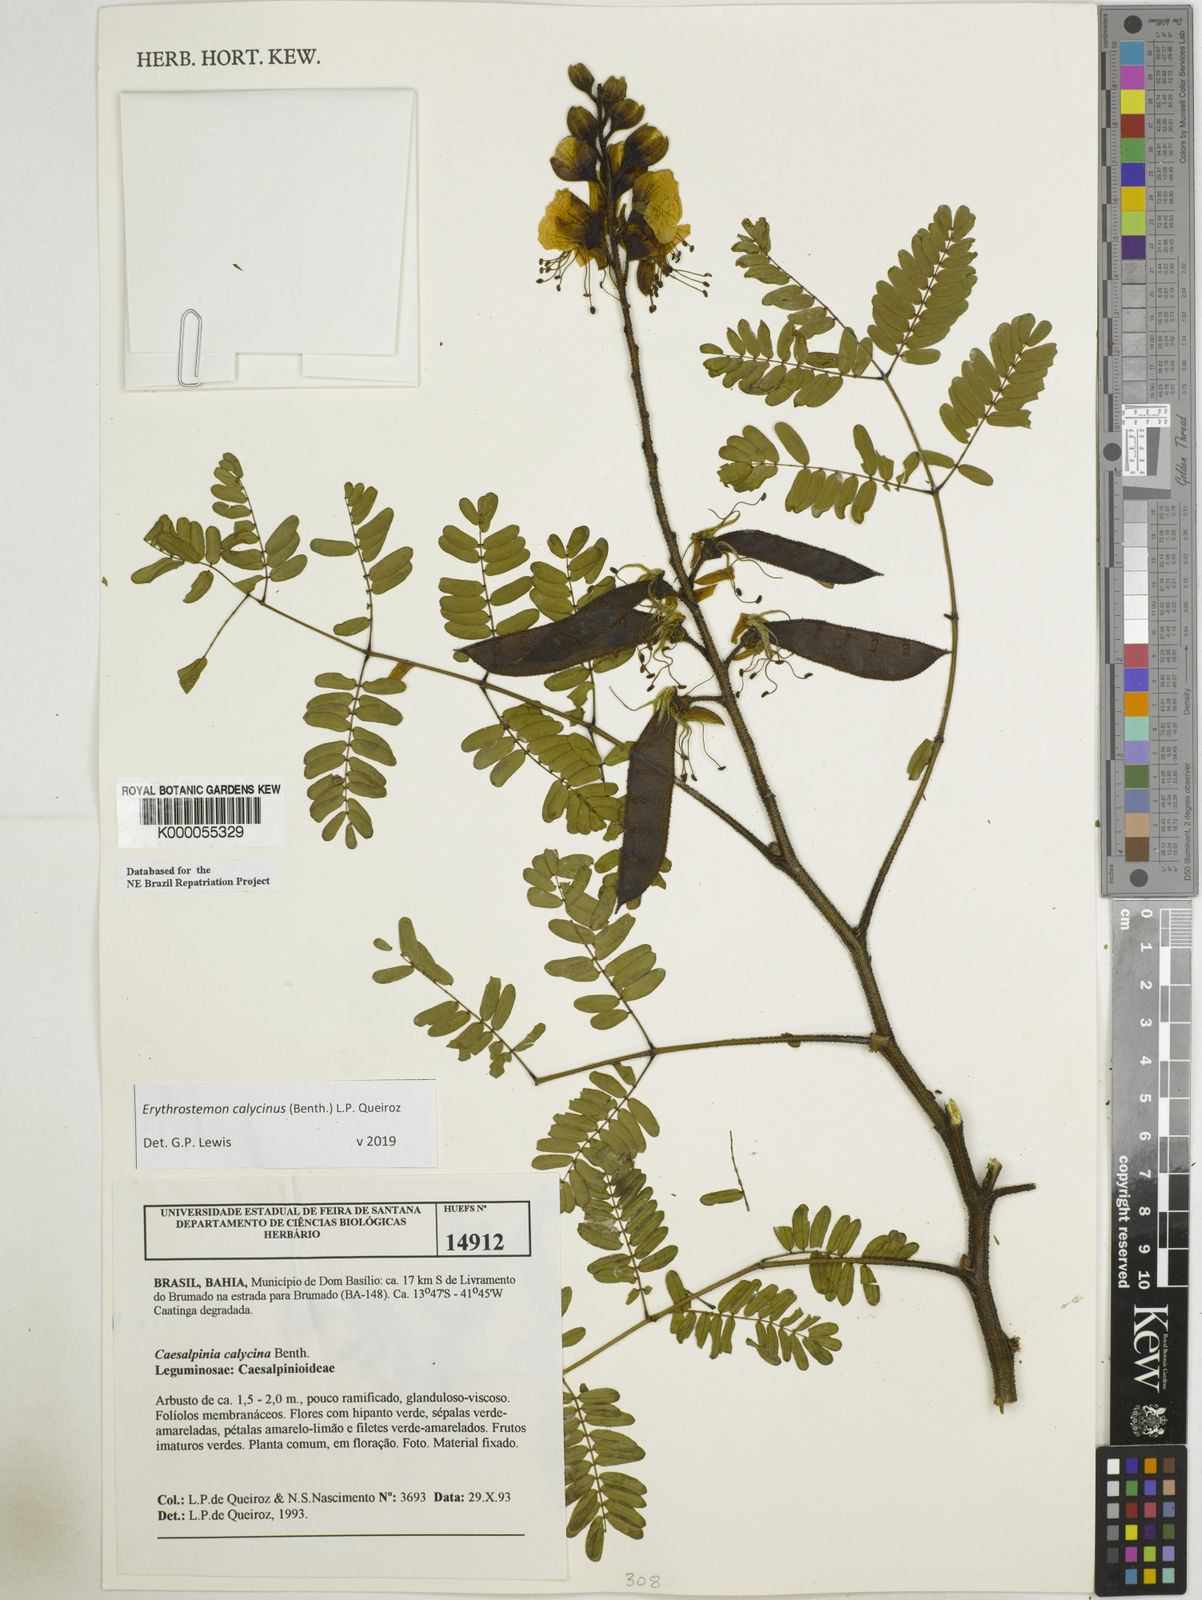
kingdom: Plantae
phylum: Tracheophyta
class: Magnoliopsida
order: Fabales
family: Fabaceae
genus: Erythrostemon
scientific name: Erythrostemon calycinus
